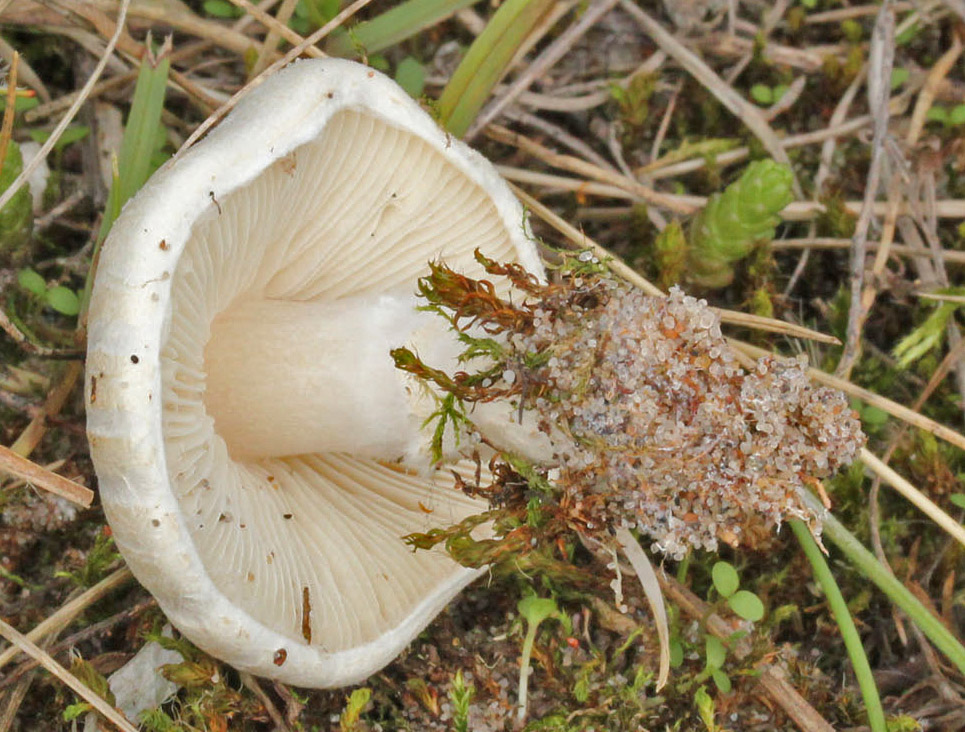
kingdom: Fungi
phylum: Basidiomycota
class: Agaricomycetes
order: Agaricales
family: Agaricaceae
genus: Lepiota
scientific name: Lepiota erminea
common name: hvid parasolhat
